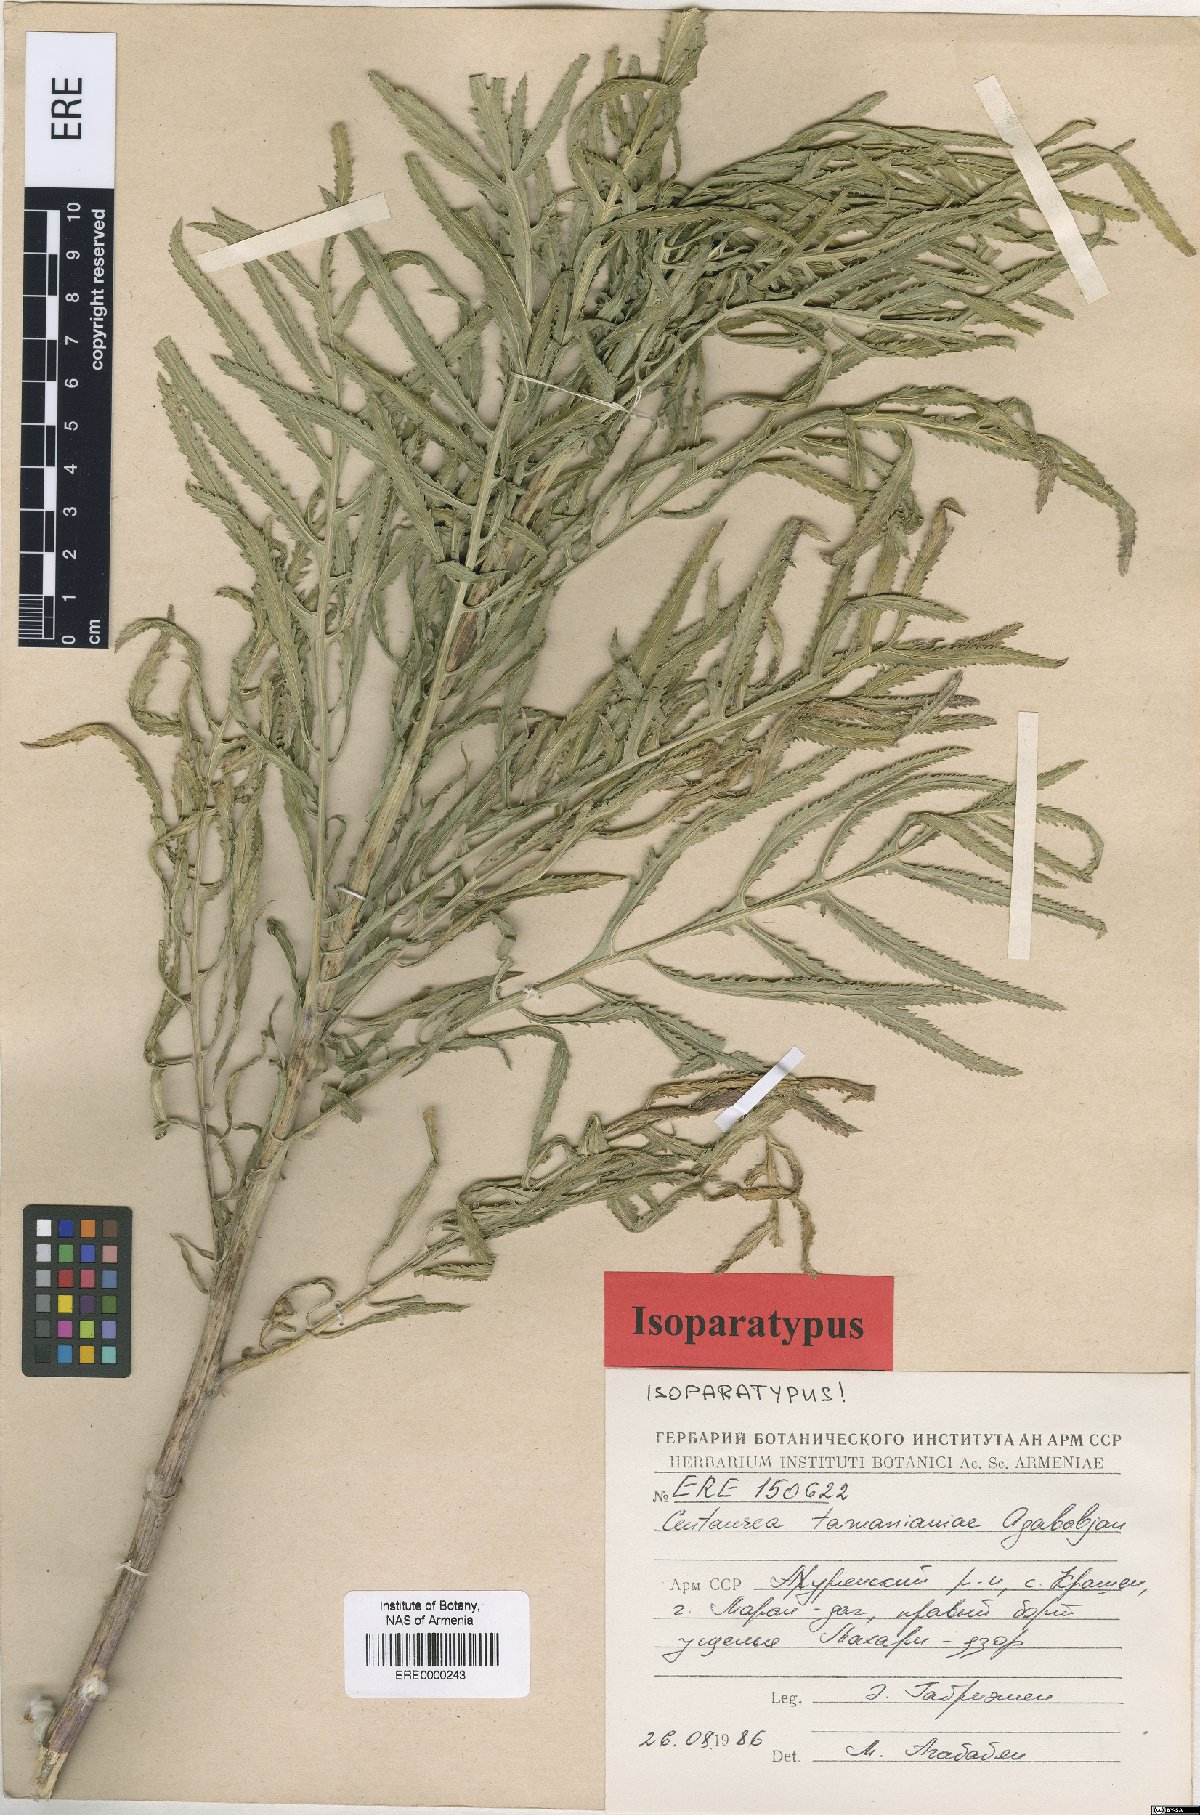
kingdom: Plantae
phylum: Tracheophyta
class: Magnoliopsida
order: Asterales
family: Asteraceae
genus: Rhaponticoides
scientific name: Rhaponticoides tamanianae
